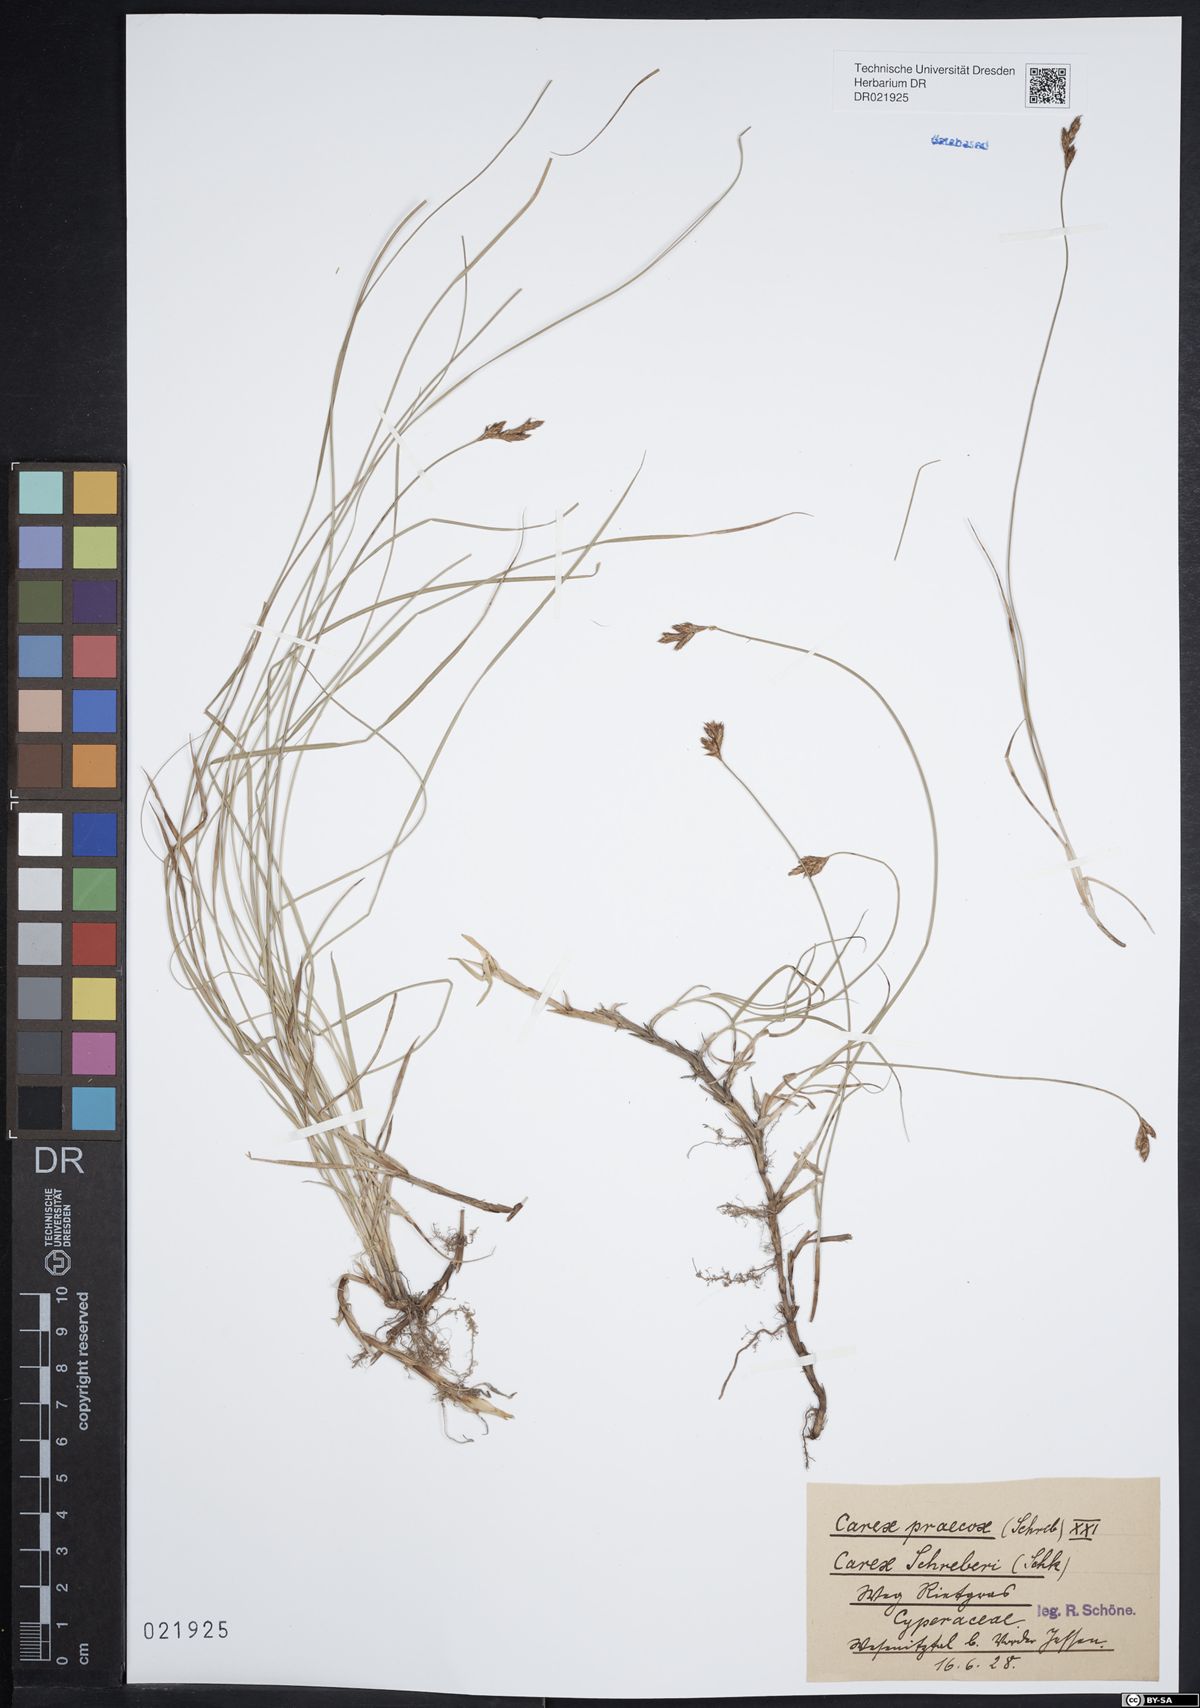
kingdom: Plantae
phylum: Tracheophyta
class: Liliopsida
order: Poales
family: Cyperaceae
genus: Carex
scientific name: Carex praecox
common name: Early sedge
